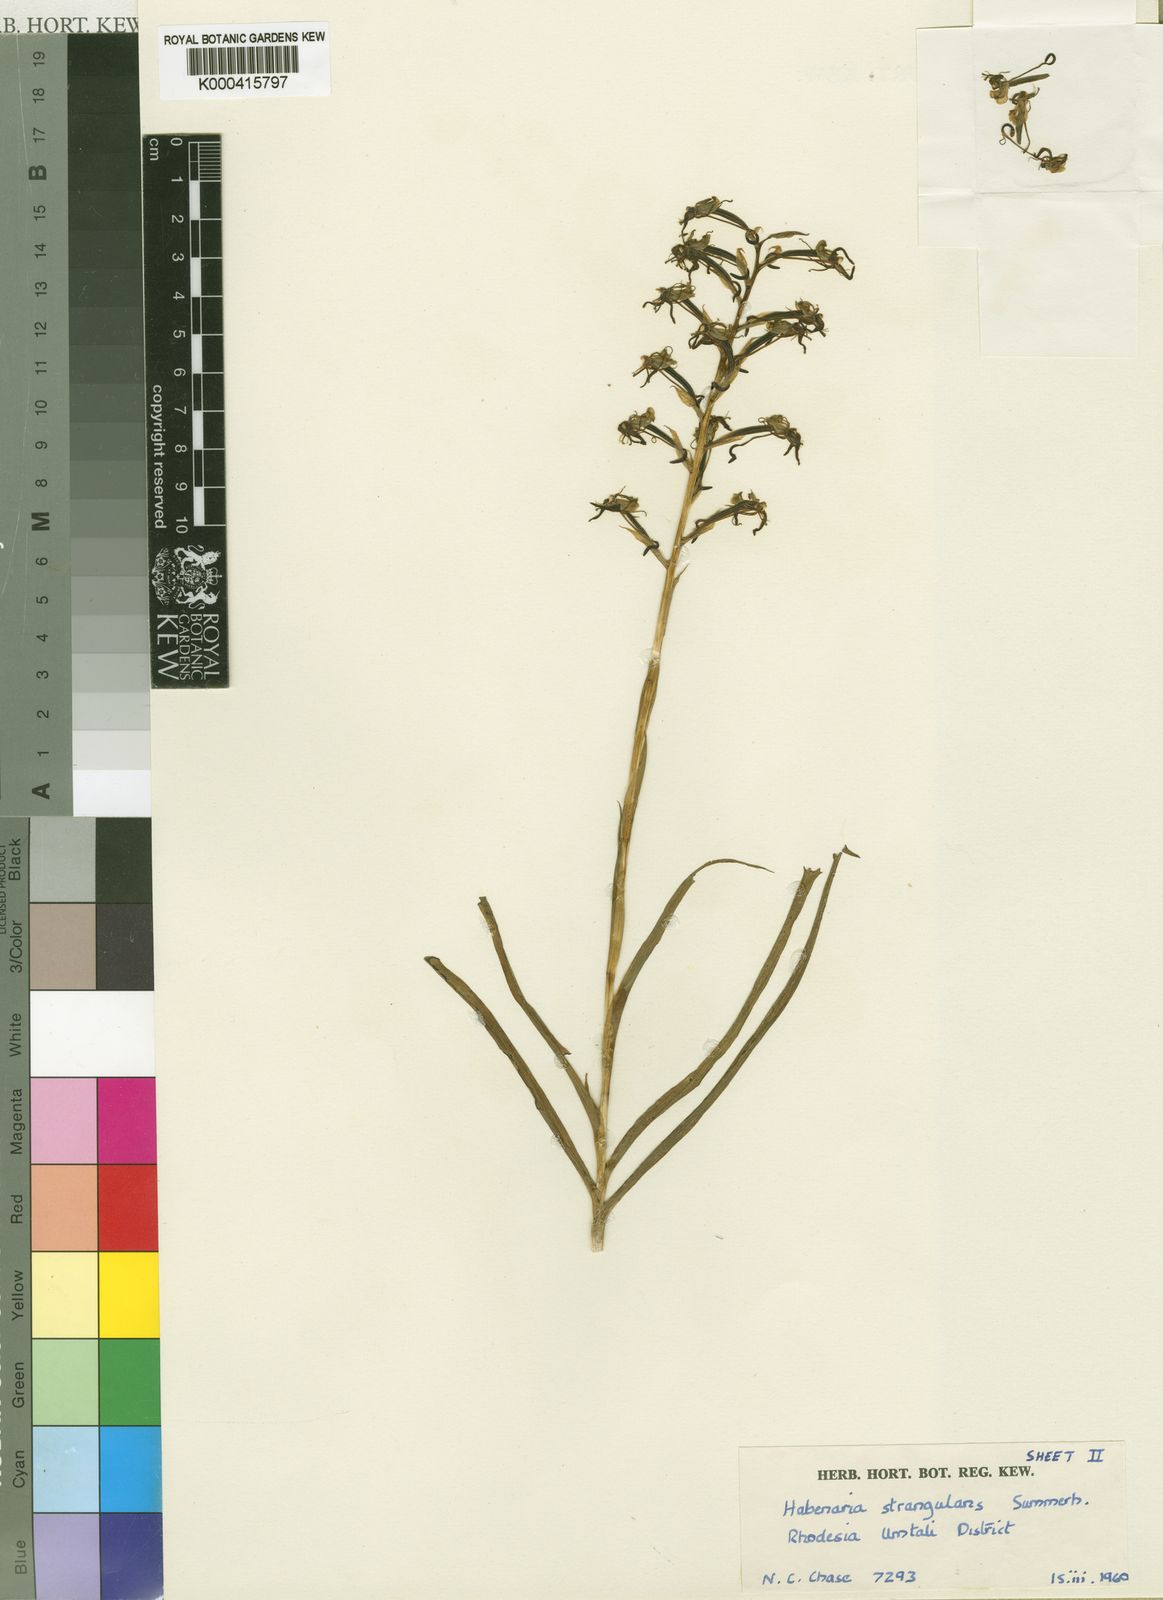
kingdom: Plantae
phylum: Tracheophyta
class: Liliopsida
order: Asparagales
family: Orchidaceae
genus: Habenaria
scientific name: Habenaria strangulans
